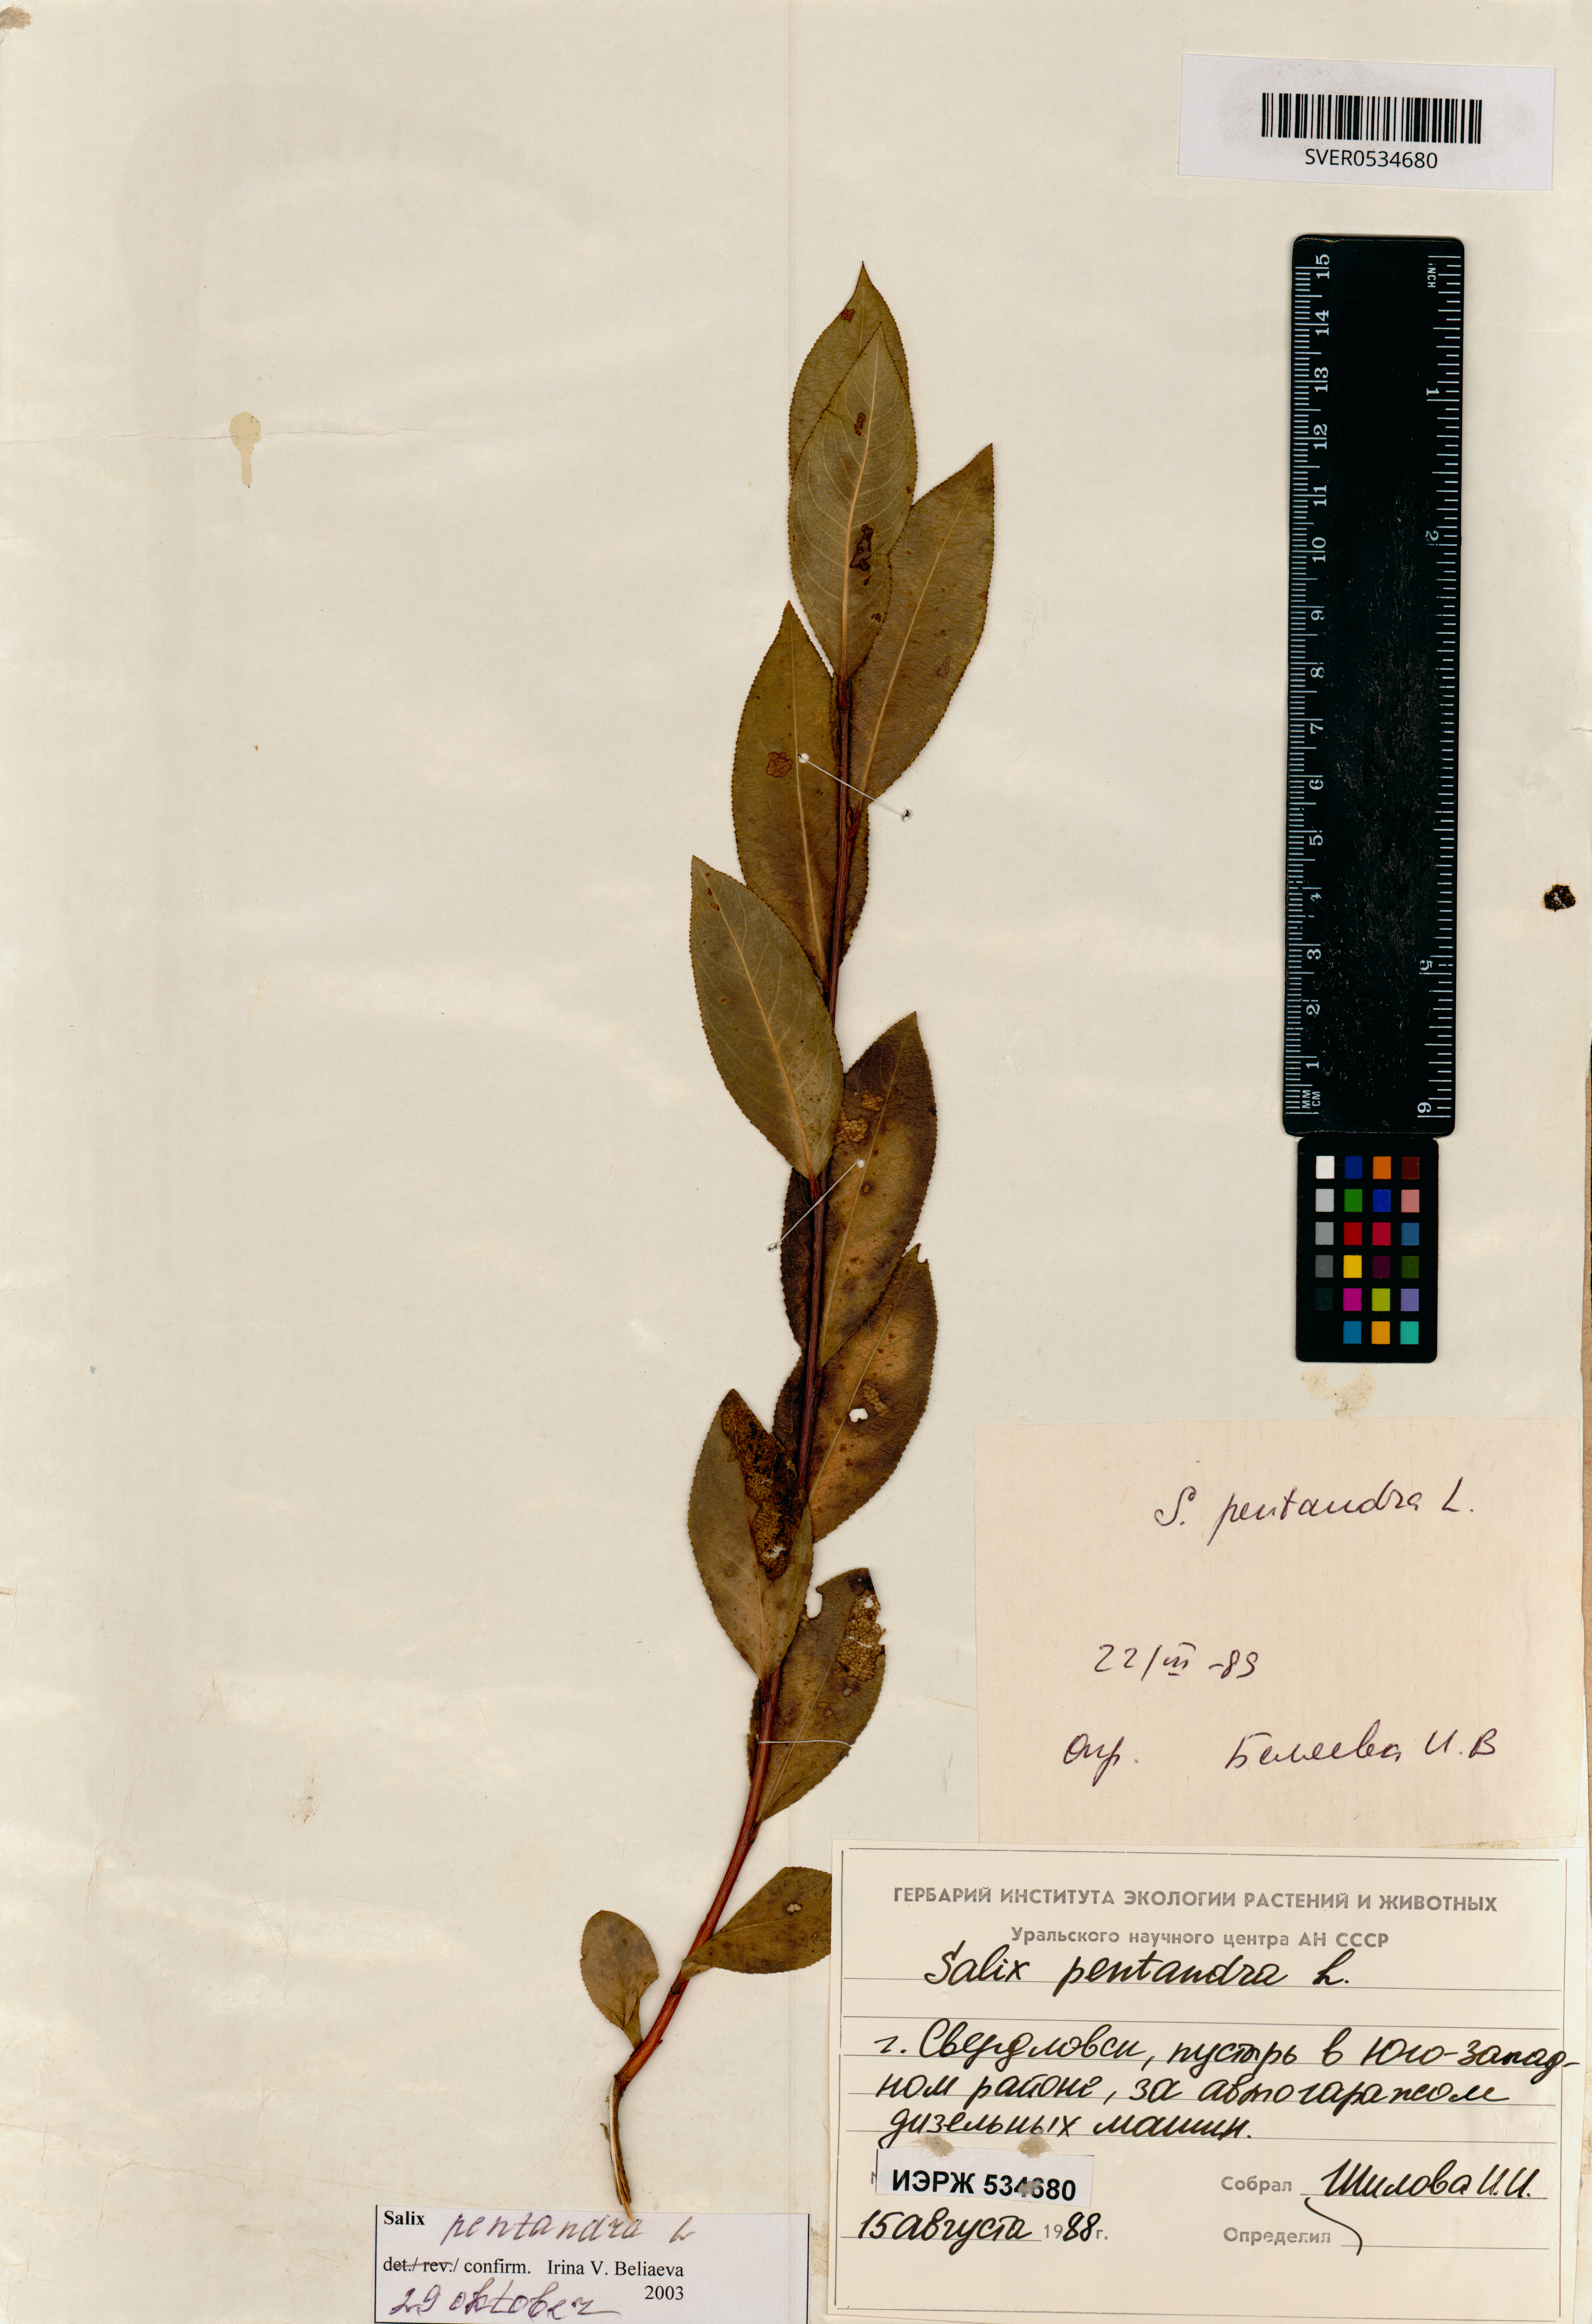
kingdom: Plantae
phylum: Tracheophyta
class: Magnoliopsida
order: Malpighiales
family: Salicaceae
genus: Salix
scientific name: Salix pentandra
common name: Bay willow
